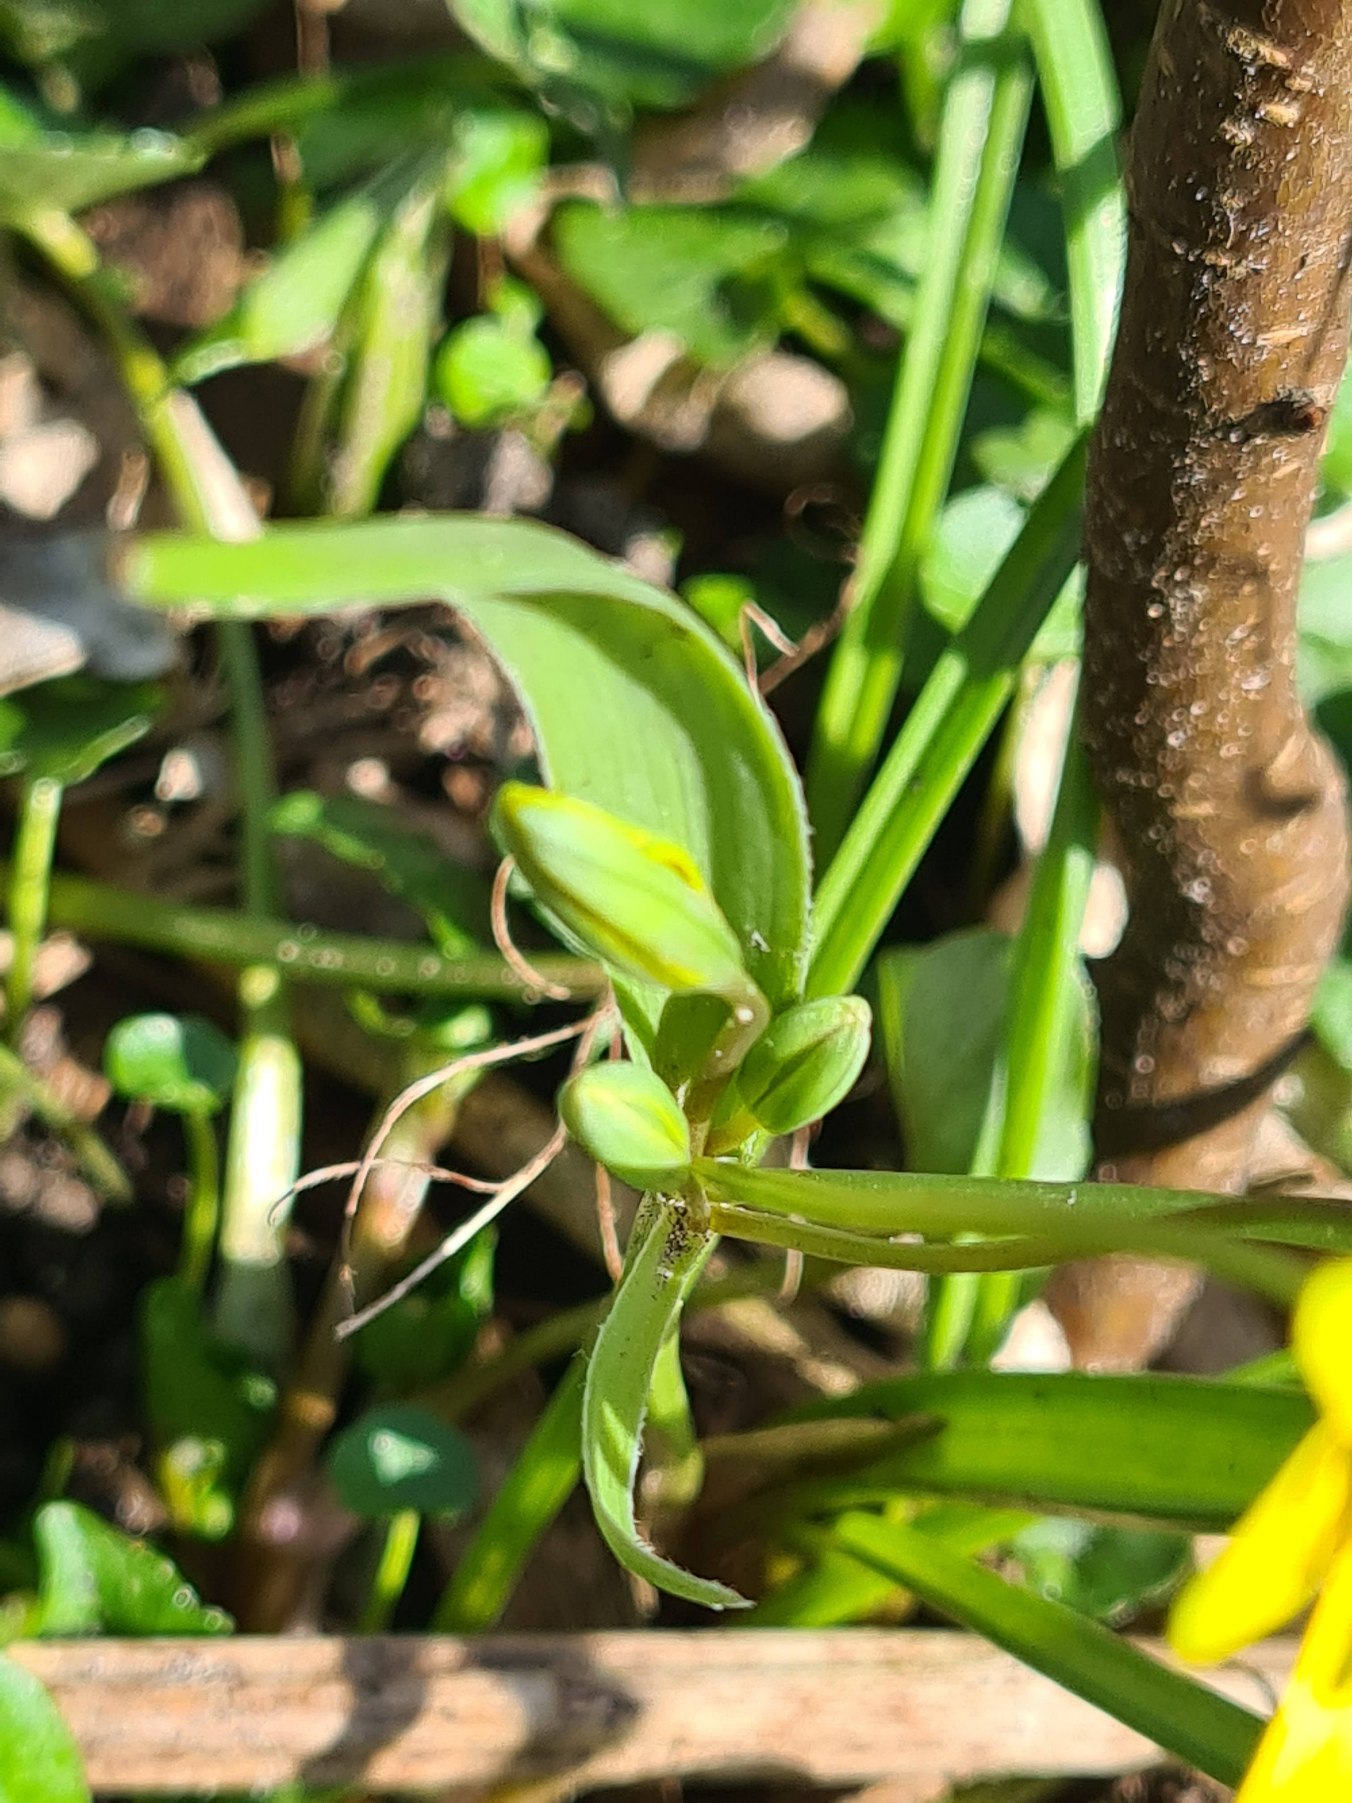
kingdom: Plantae
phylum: Tracheophyta
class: Liliopsida
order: Liliales
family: Liliaceae
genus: Gagea
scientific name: Gagea lutea
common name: Almindelig guldstjerne
